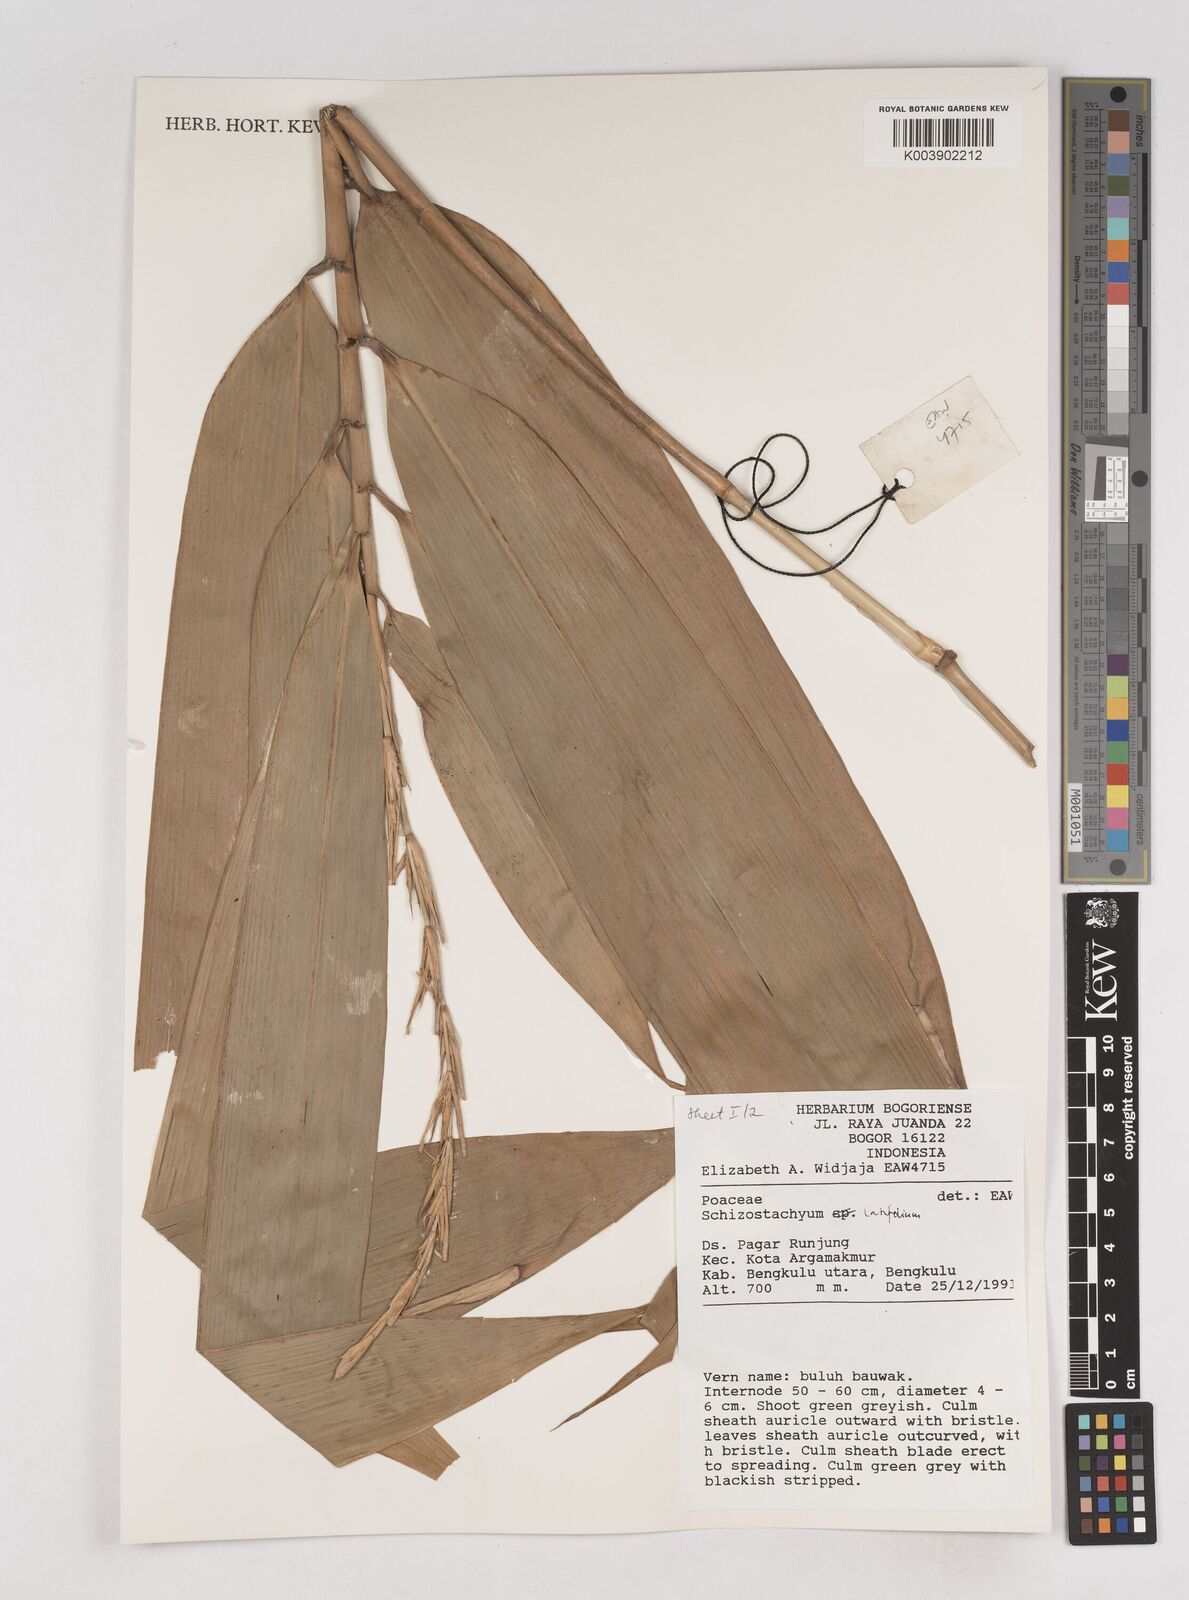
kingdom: Plantae
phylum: Tracheophyta
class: Liliopsida
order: Poales
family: Poaceae
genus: Schizostachyum
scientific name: Schizostachyum latifolium
